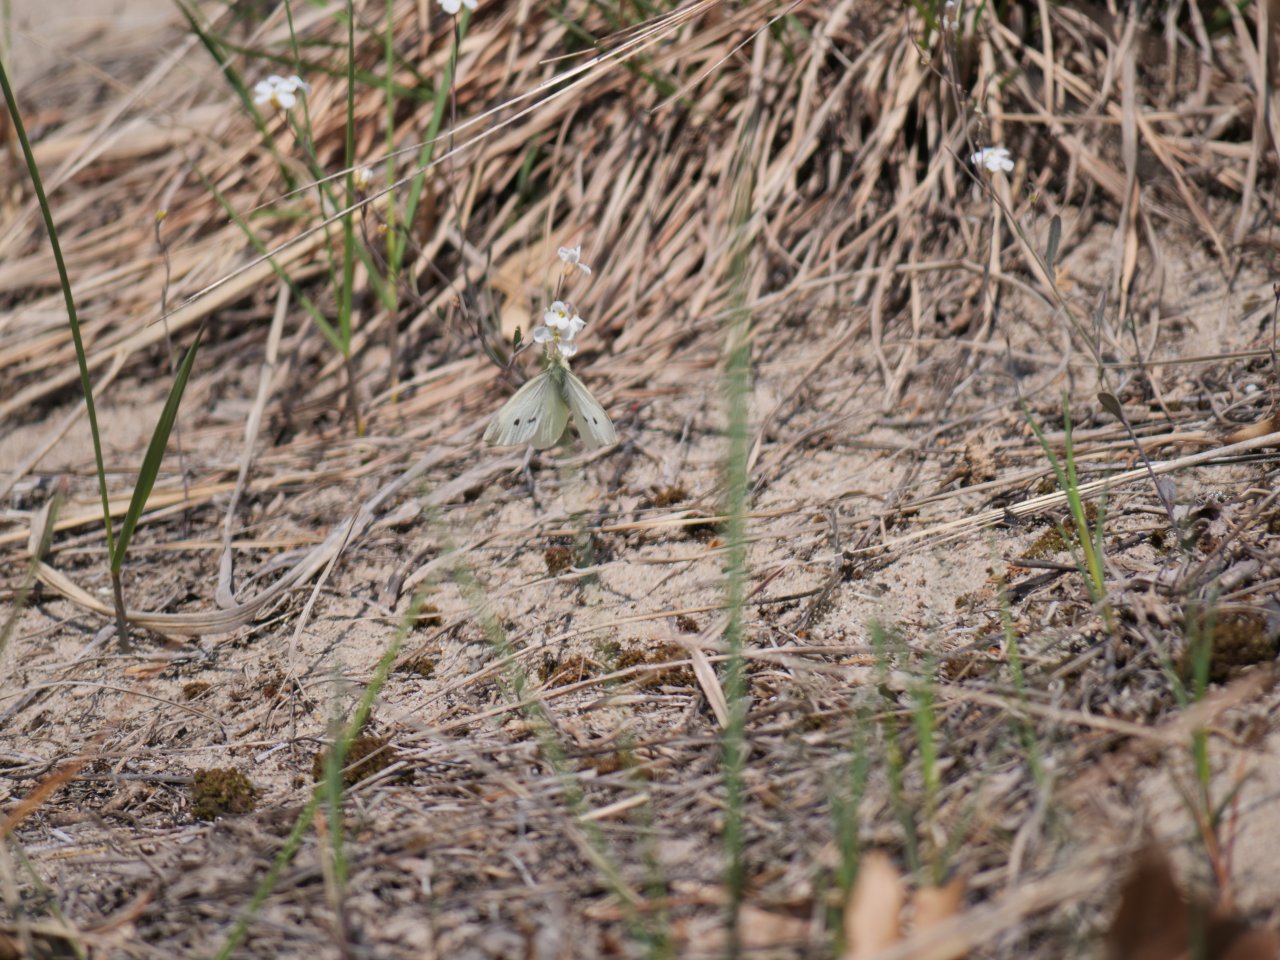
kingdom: Animalia
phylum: Arthropoda
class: Insecta
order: Lepidoptera
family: Pieridae
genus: Pieris
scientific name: Pieris rapae
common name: Cabbage White
